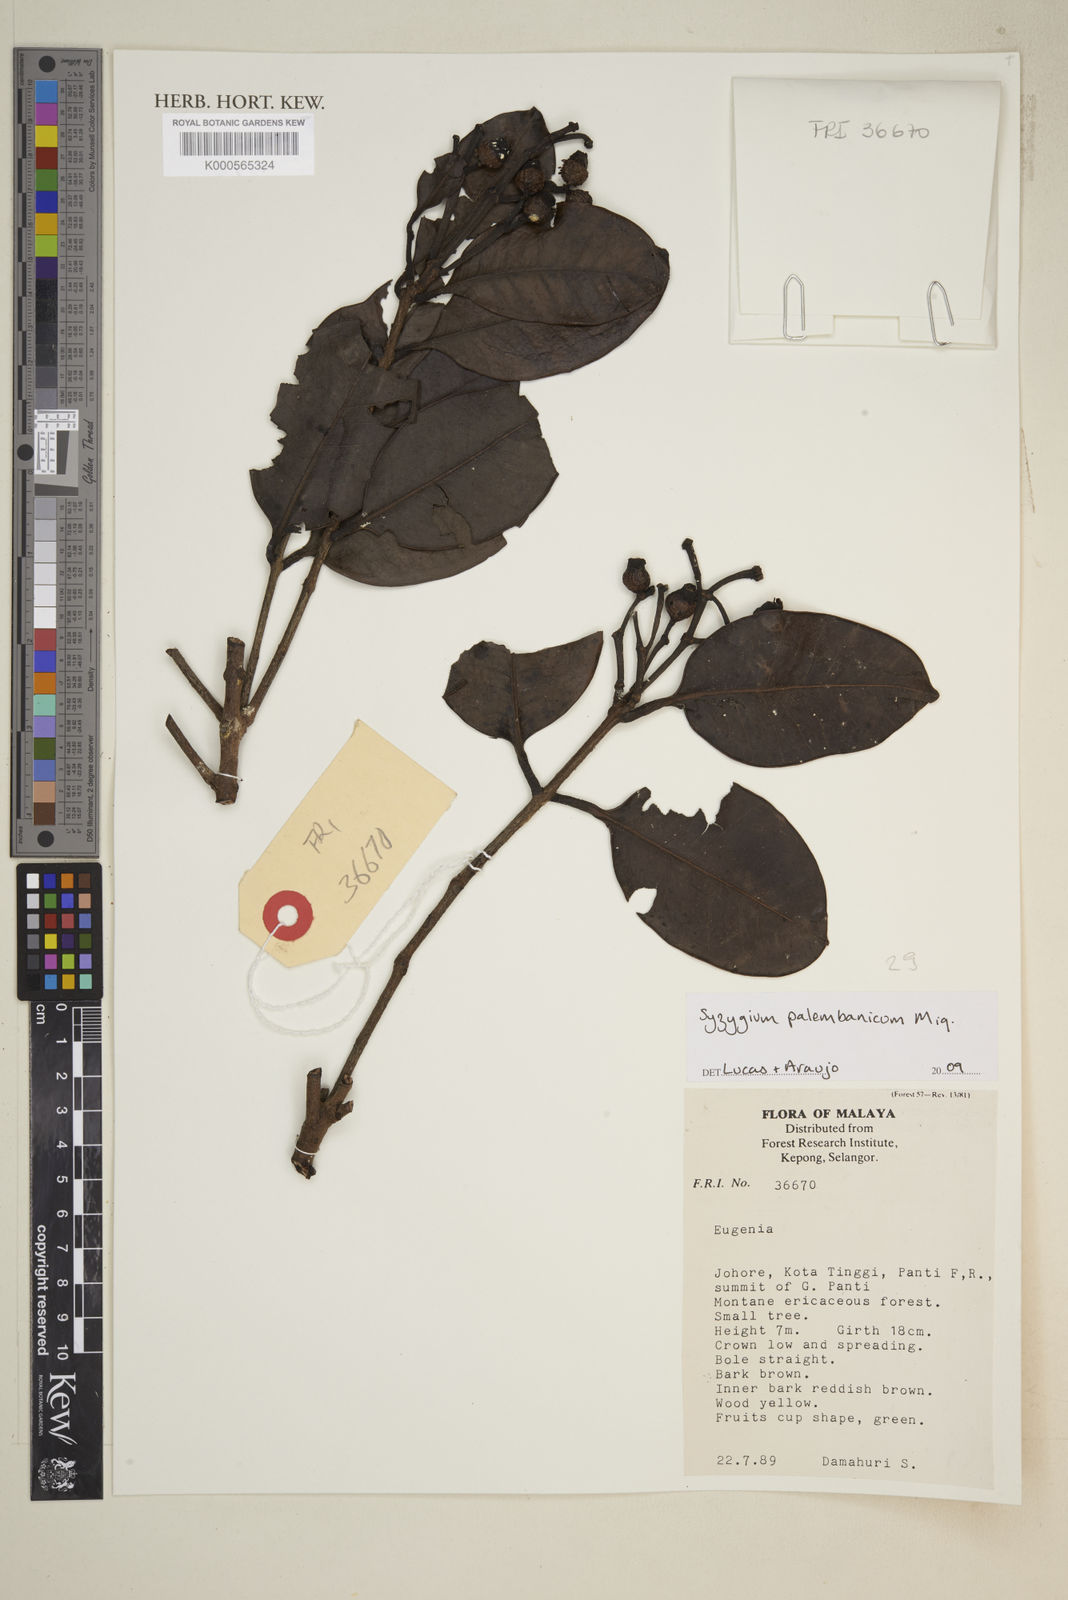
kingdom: Plantae
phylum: Tracheophyta
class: Magnoliopsida
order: Myrtales
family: Myrtaceae
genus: Syzygium
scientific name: Syzygium urceolatum
